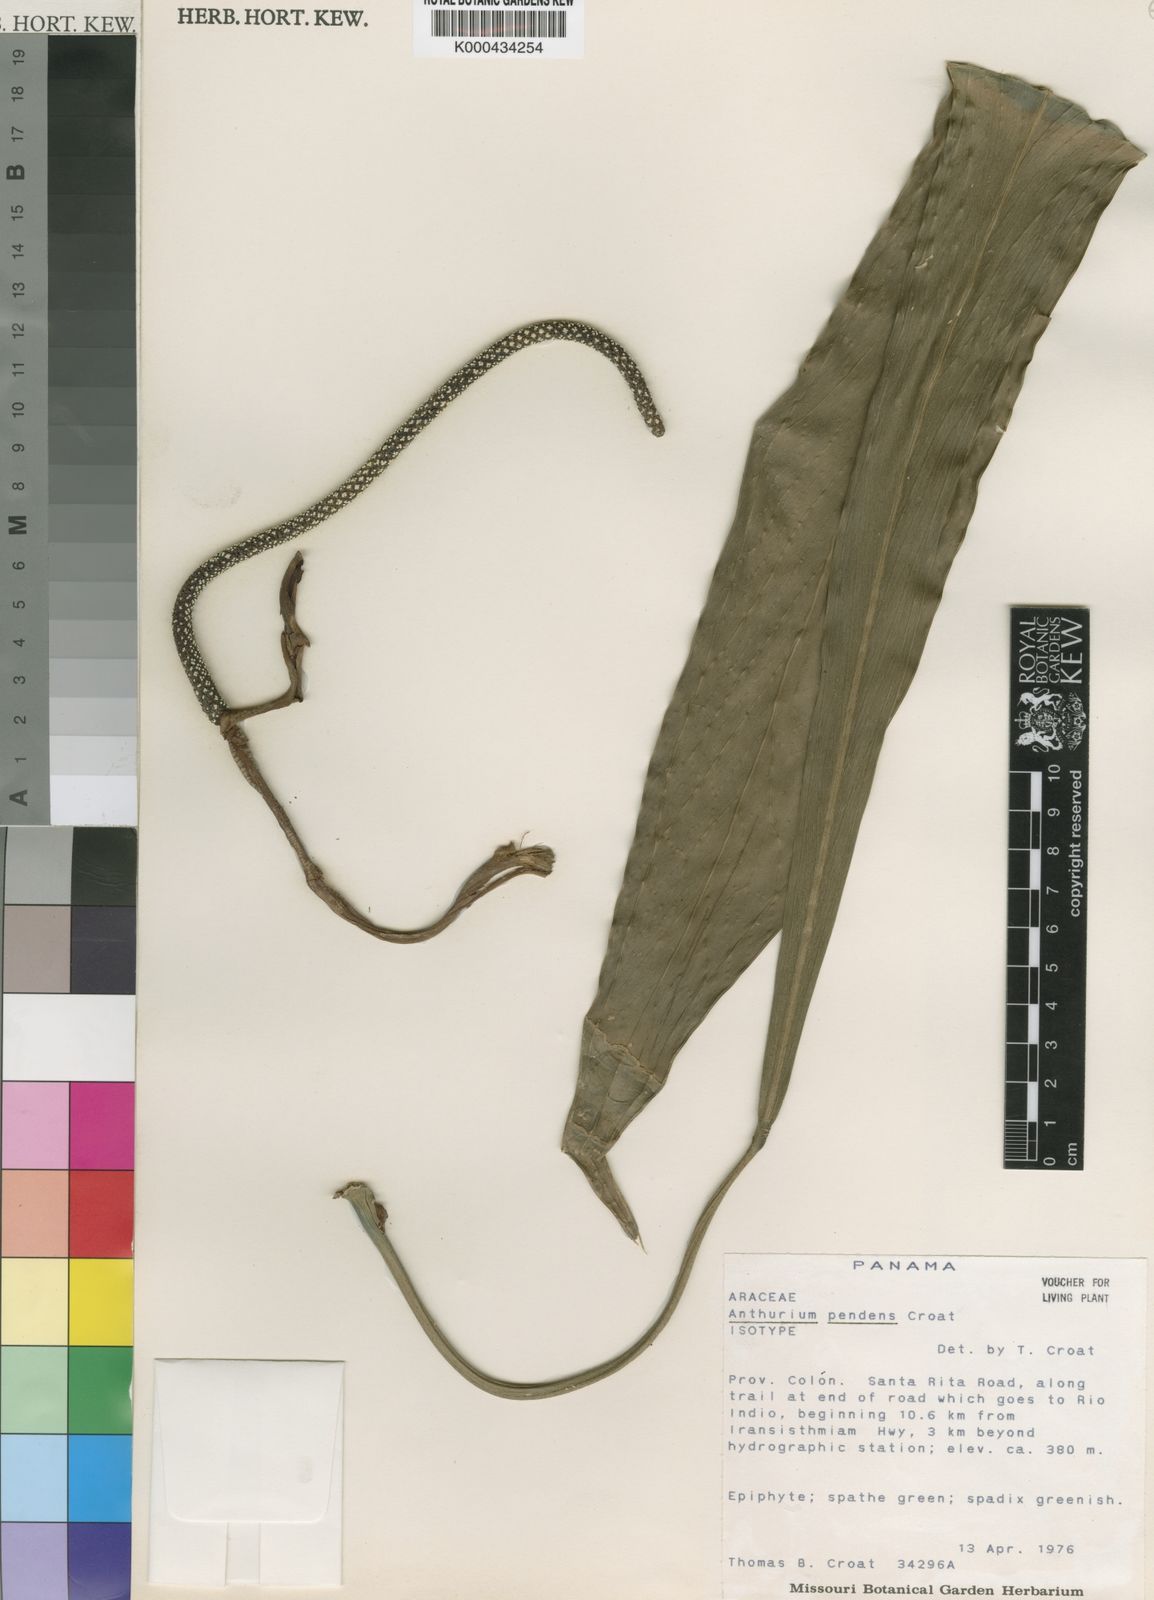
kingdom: Plantae
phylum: Tracheophyta
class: Liliopsida
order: Alismatales
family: Araceae
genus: Anthurium
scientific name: Anthurium pendens
